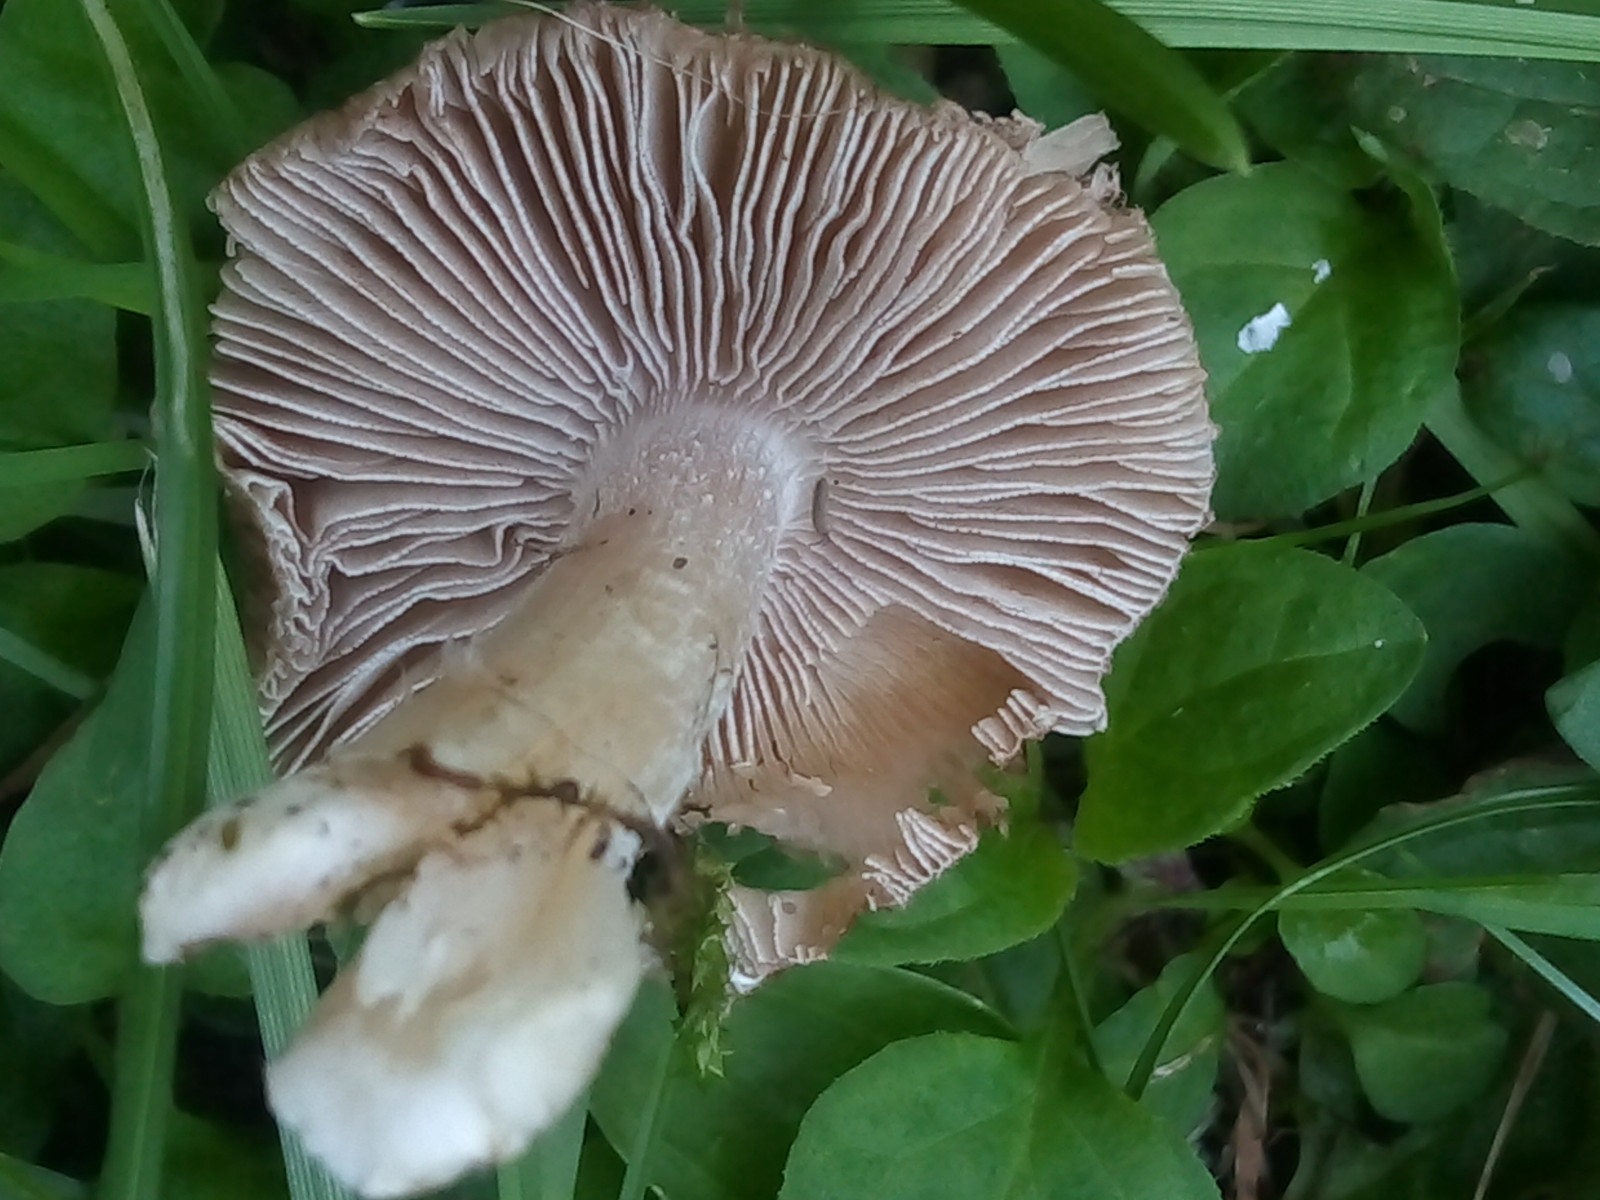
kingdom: Fungi
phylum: Basidiomycota
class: Agaricomycetes
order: Agaricales
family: Inocybaceae
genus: Inocybe
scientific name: Inocybe
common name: trævlhat
